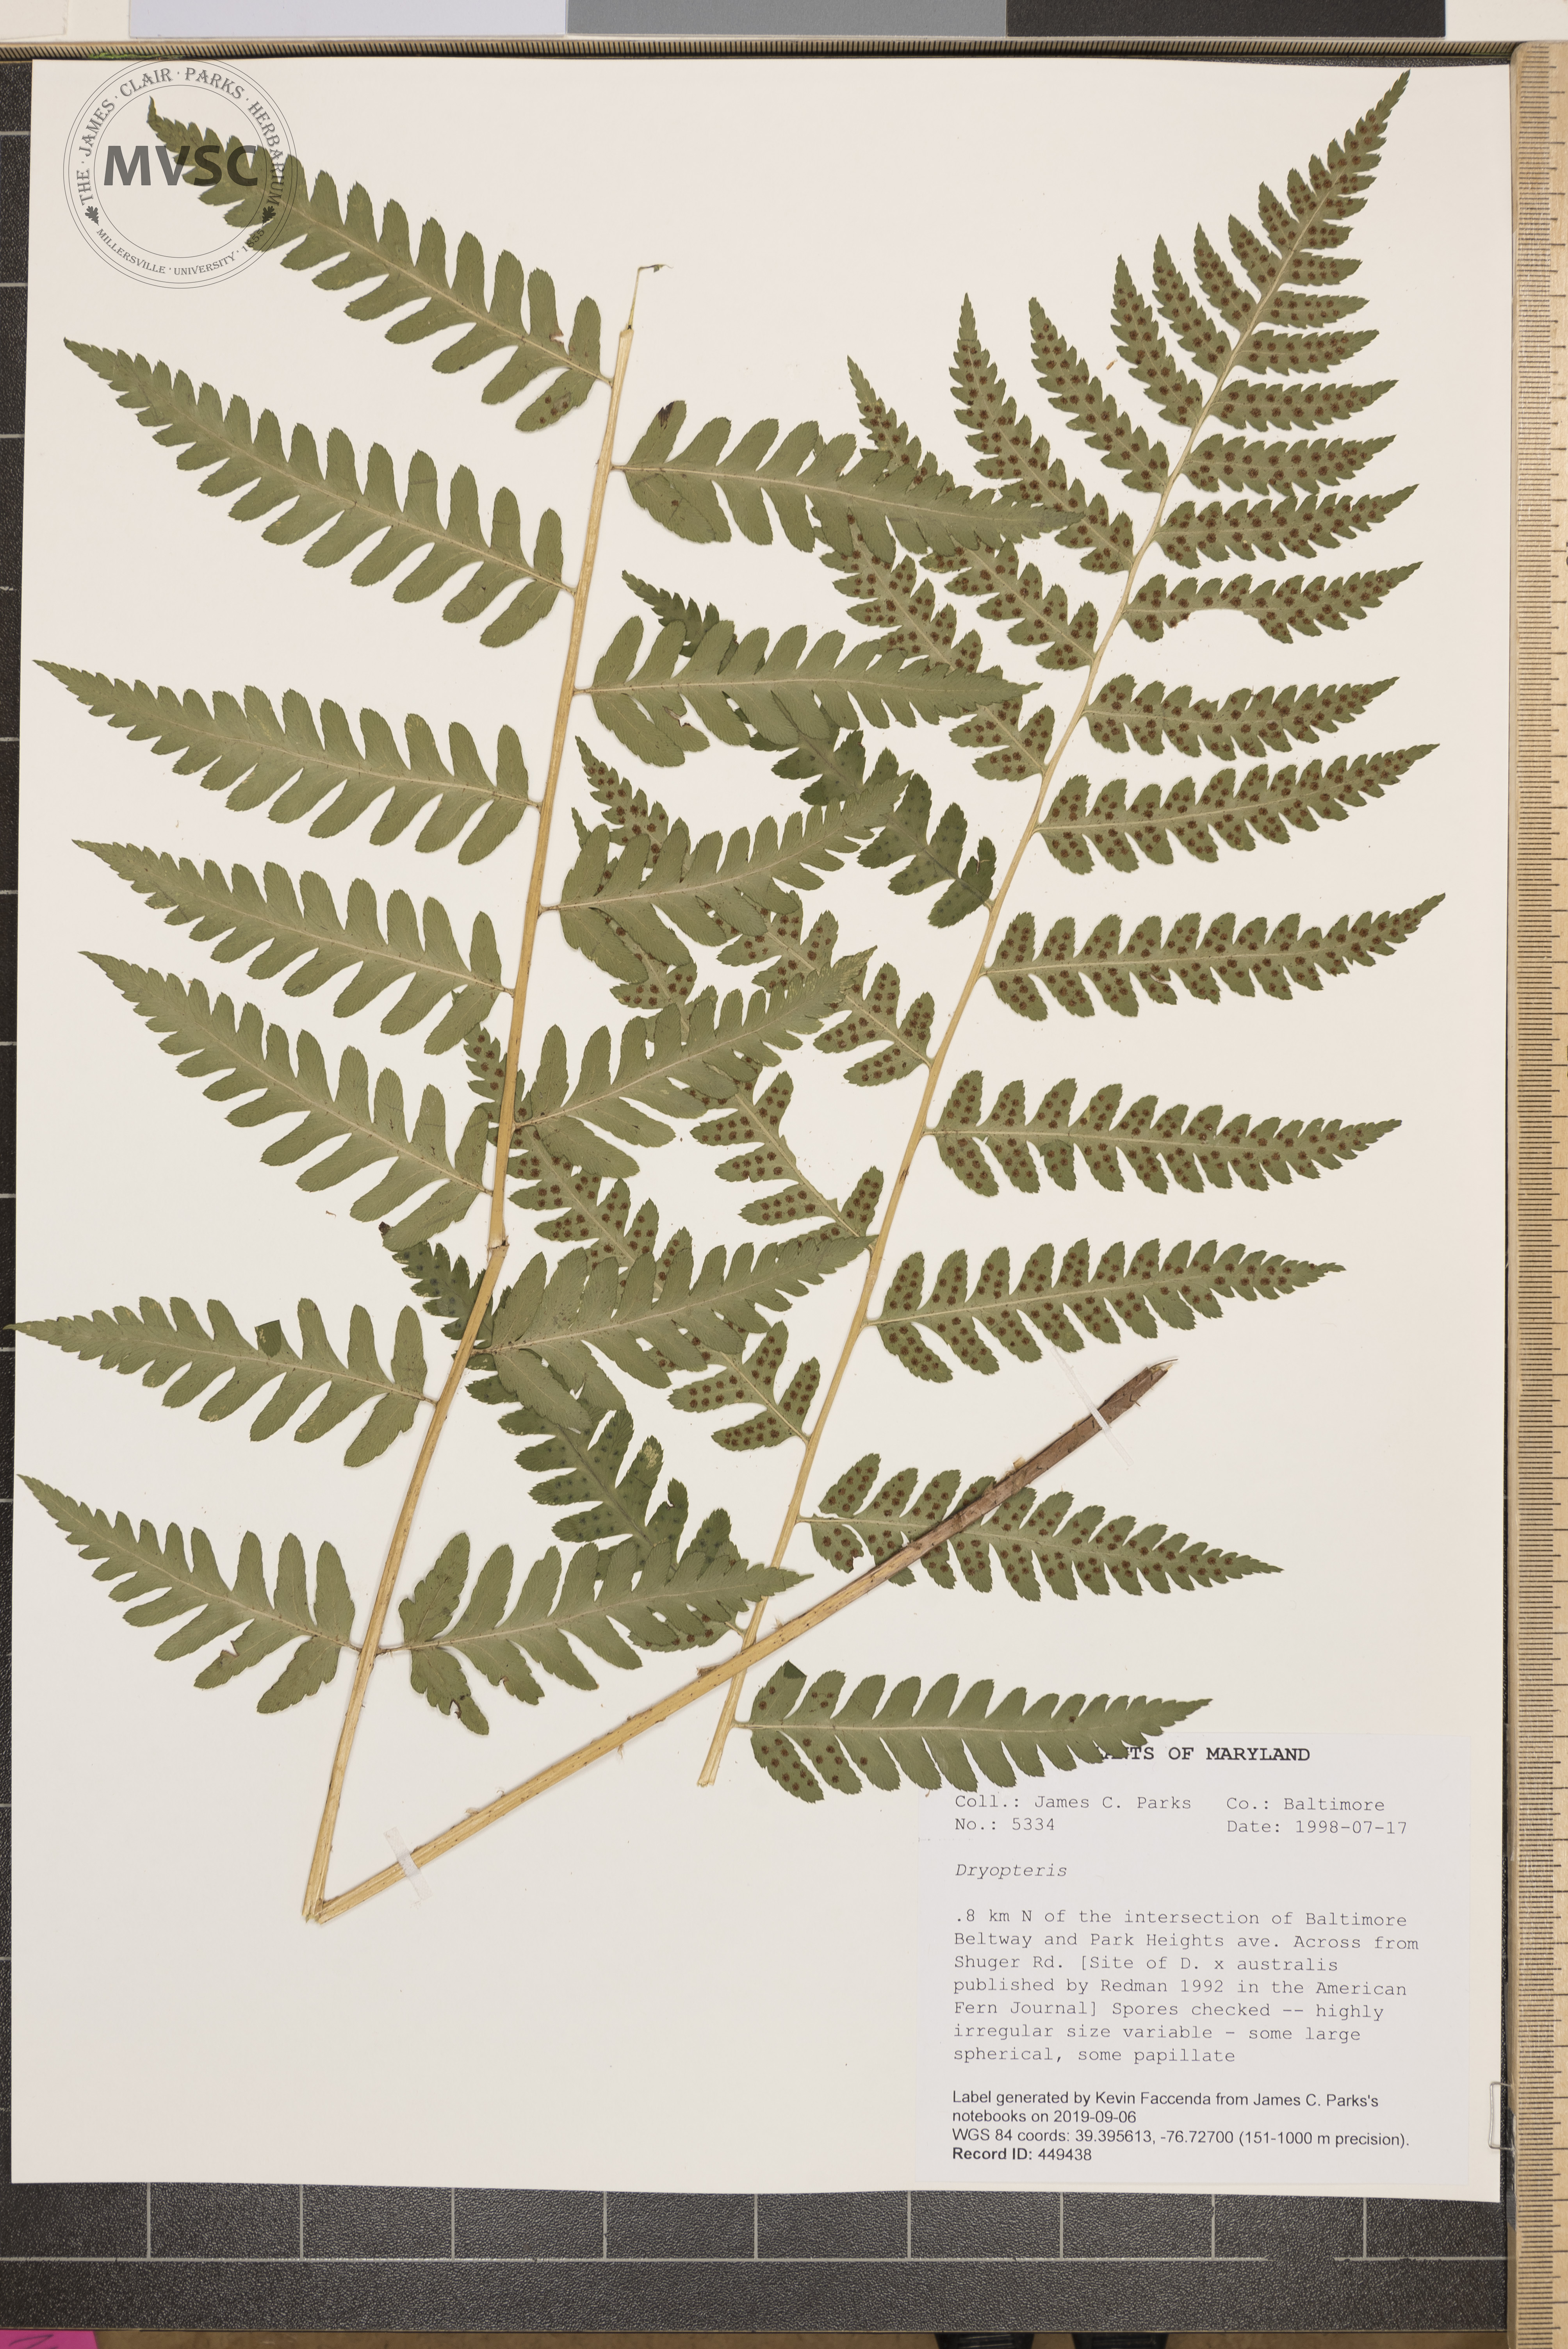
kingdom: Plantae
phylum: Tracheophyta
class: Polypodiopsida
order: Polypodiales
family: Dryopteridaceae
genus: Dryopteris
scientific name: Dryopteris celsa
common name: Log fern
